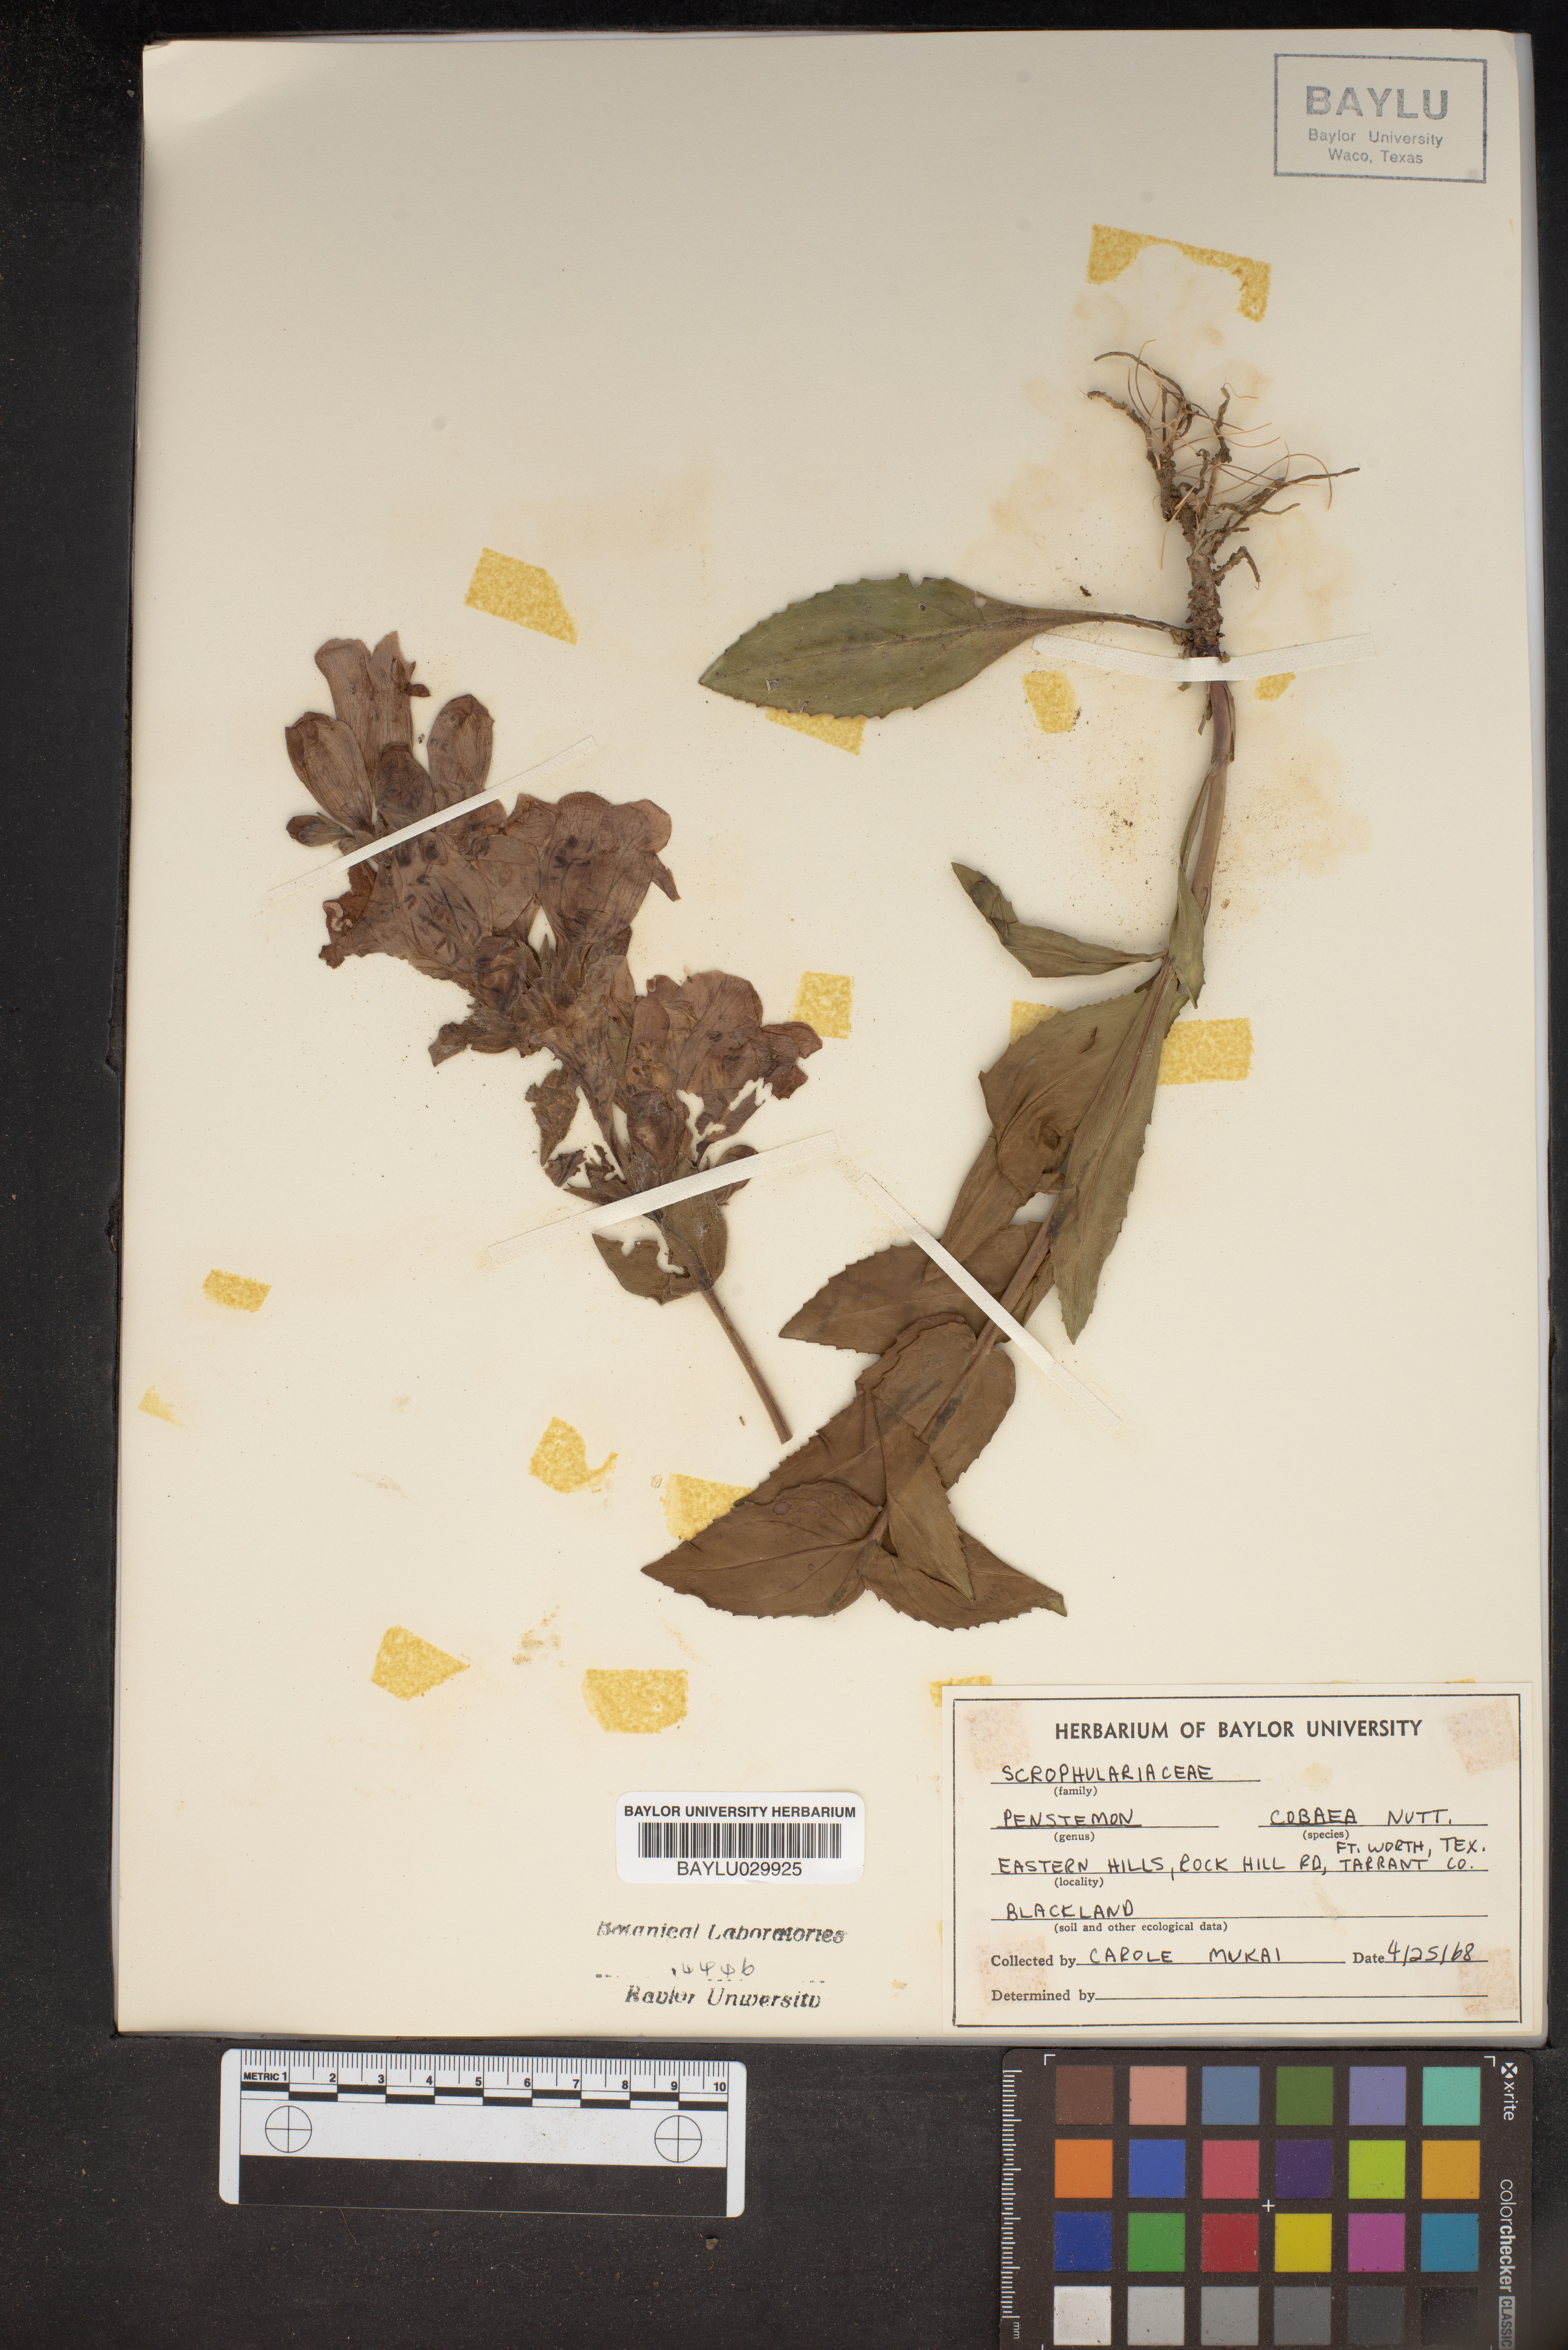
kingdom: Plantae
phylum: Tracheophyta
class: Magnoliopsida
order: Lamiales
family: Plantaginaceae
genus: Penstemon
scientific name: Penstemon cobaea
